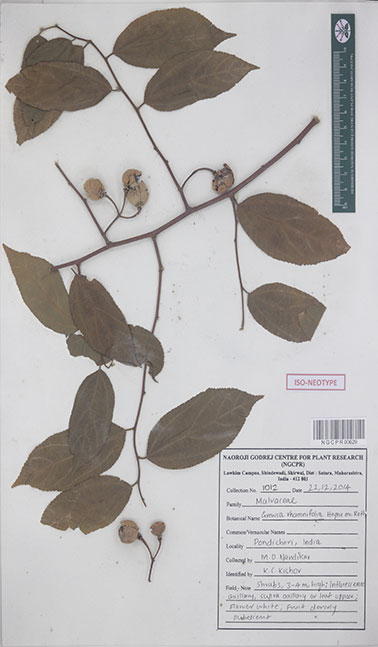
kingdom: Plantae
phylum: Tracheophyta
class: Magnoliopsida
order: Malvales
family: Malvaceae
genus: Grewia
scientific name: Grewia oppositifolia
